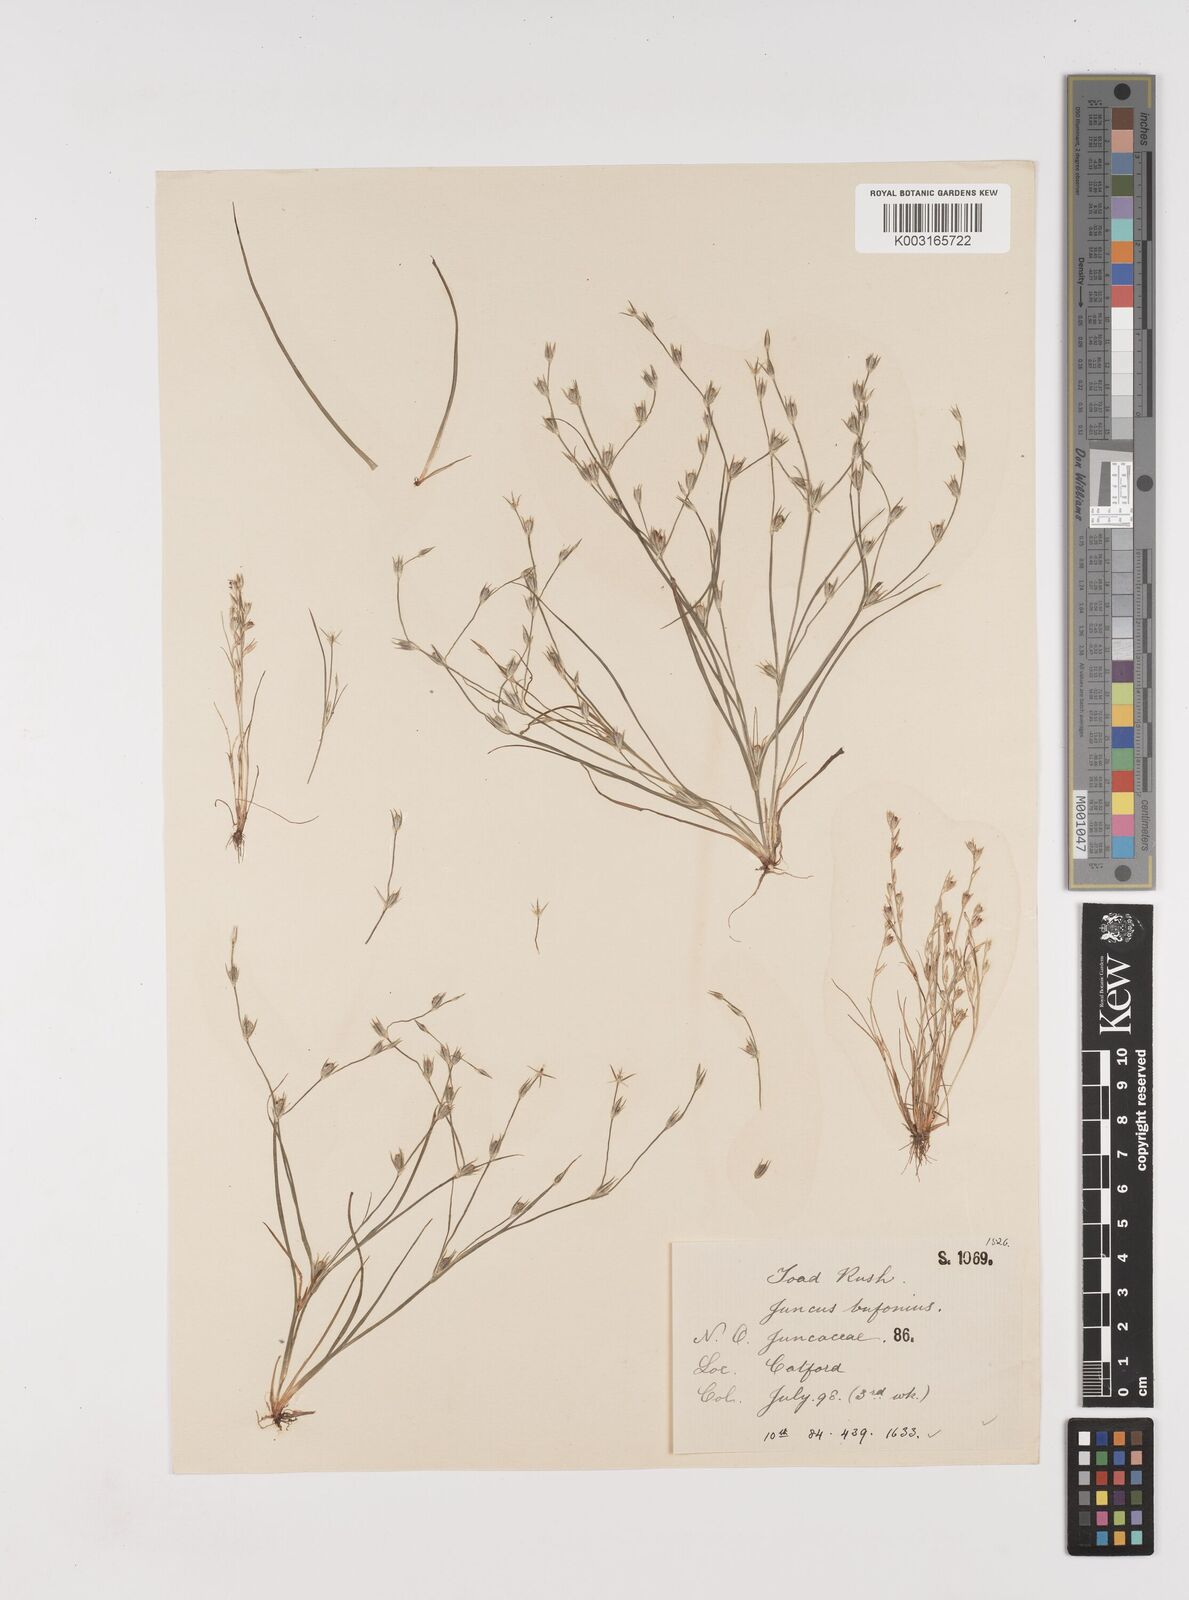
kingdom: Plantae
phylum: Tracheophyta
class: Liliopsida
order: Poales
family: Juncaceae
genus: Juncus
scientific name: Juncus bufonius
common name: Toad rush
